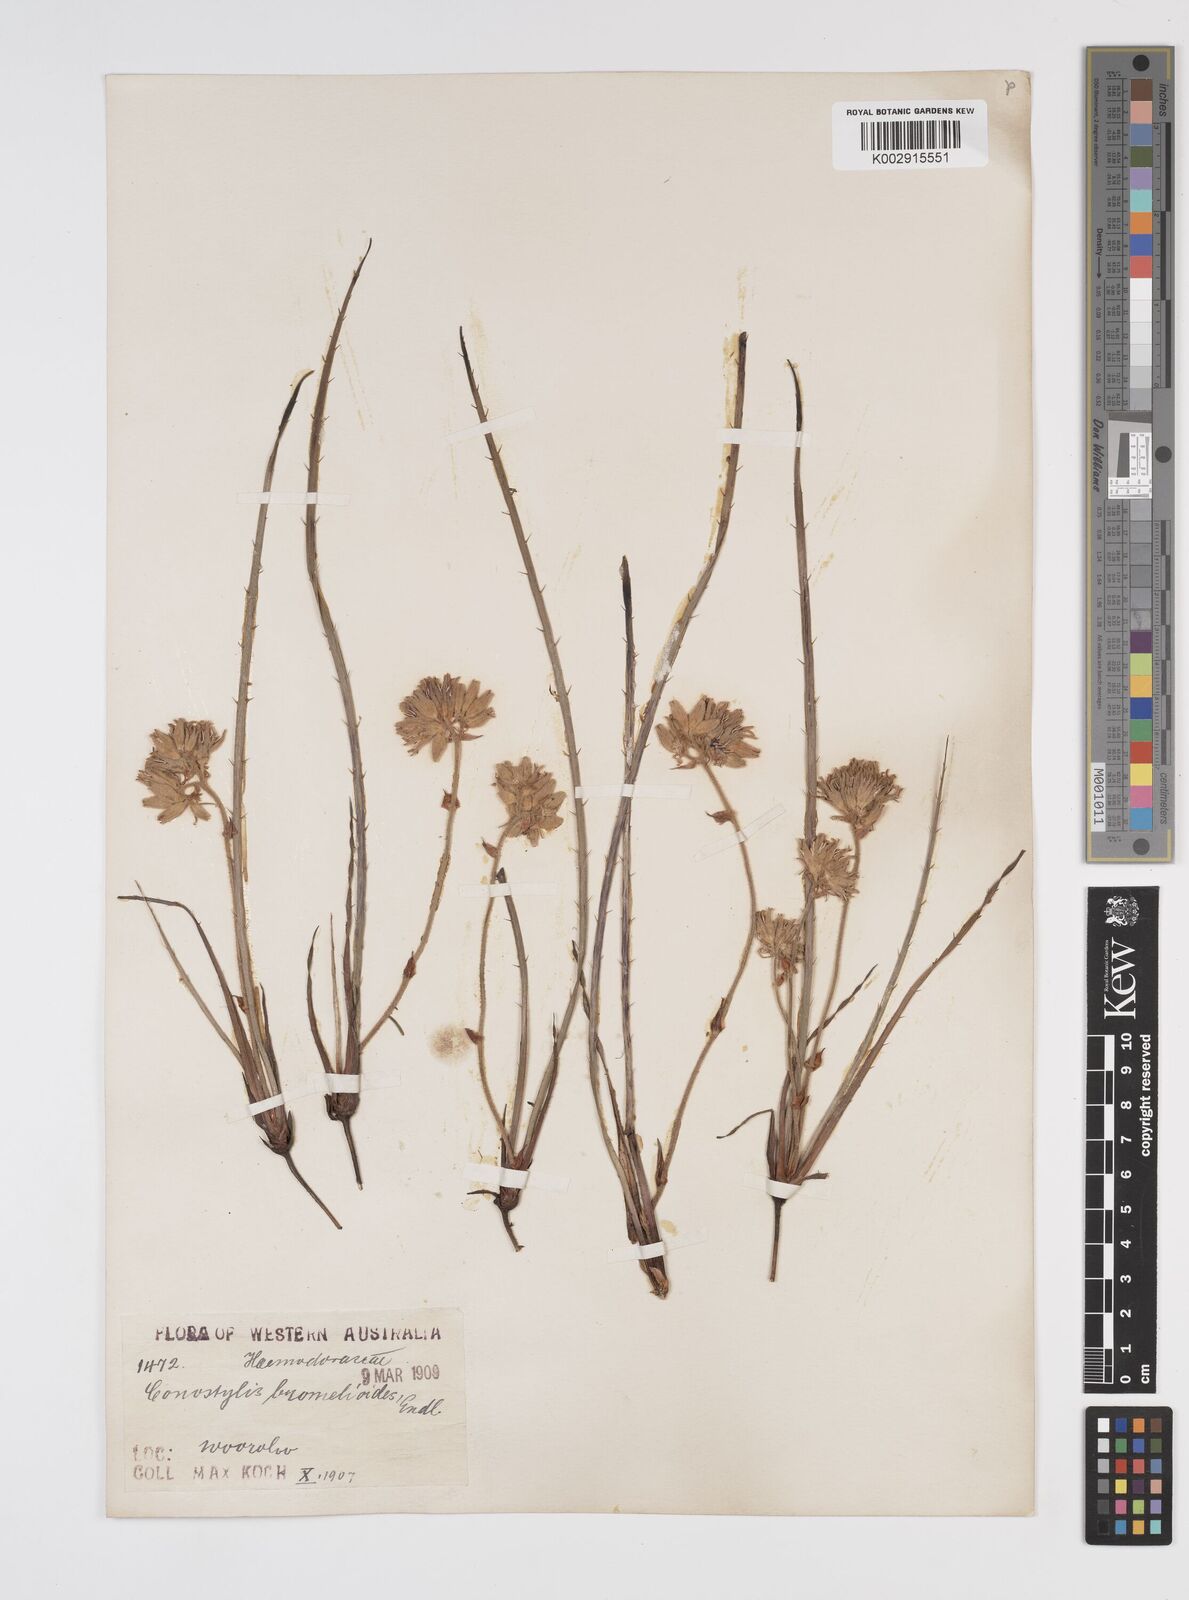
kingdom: Plantae
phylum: Tracheophyta
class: Liliopsida
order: Commelinales
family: Haemodoraceae
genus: Conostylis
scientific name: Conostylis aculeata
